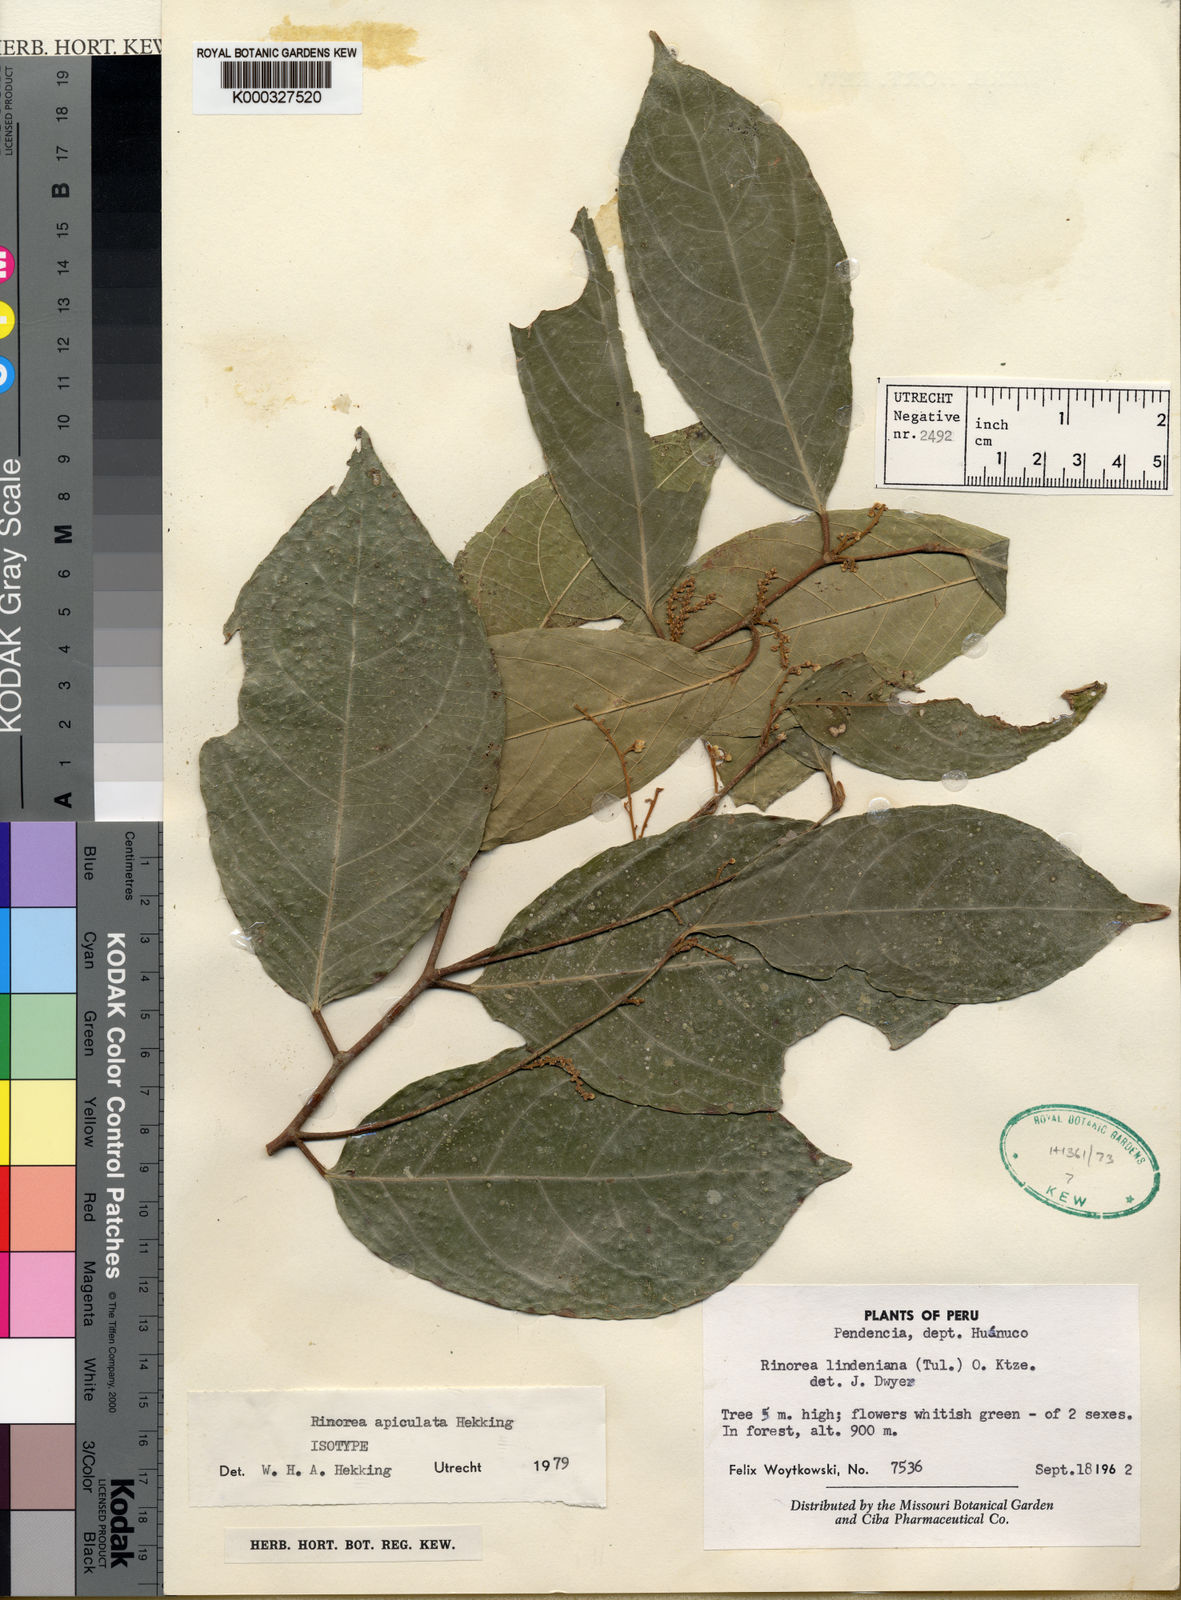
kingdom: Plantae
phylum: Tracheophyta
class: Magnoliopsida
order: Malpighiales
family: Violaceae
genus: Bribria
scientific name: Bribria apiculata
